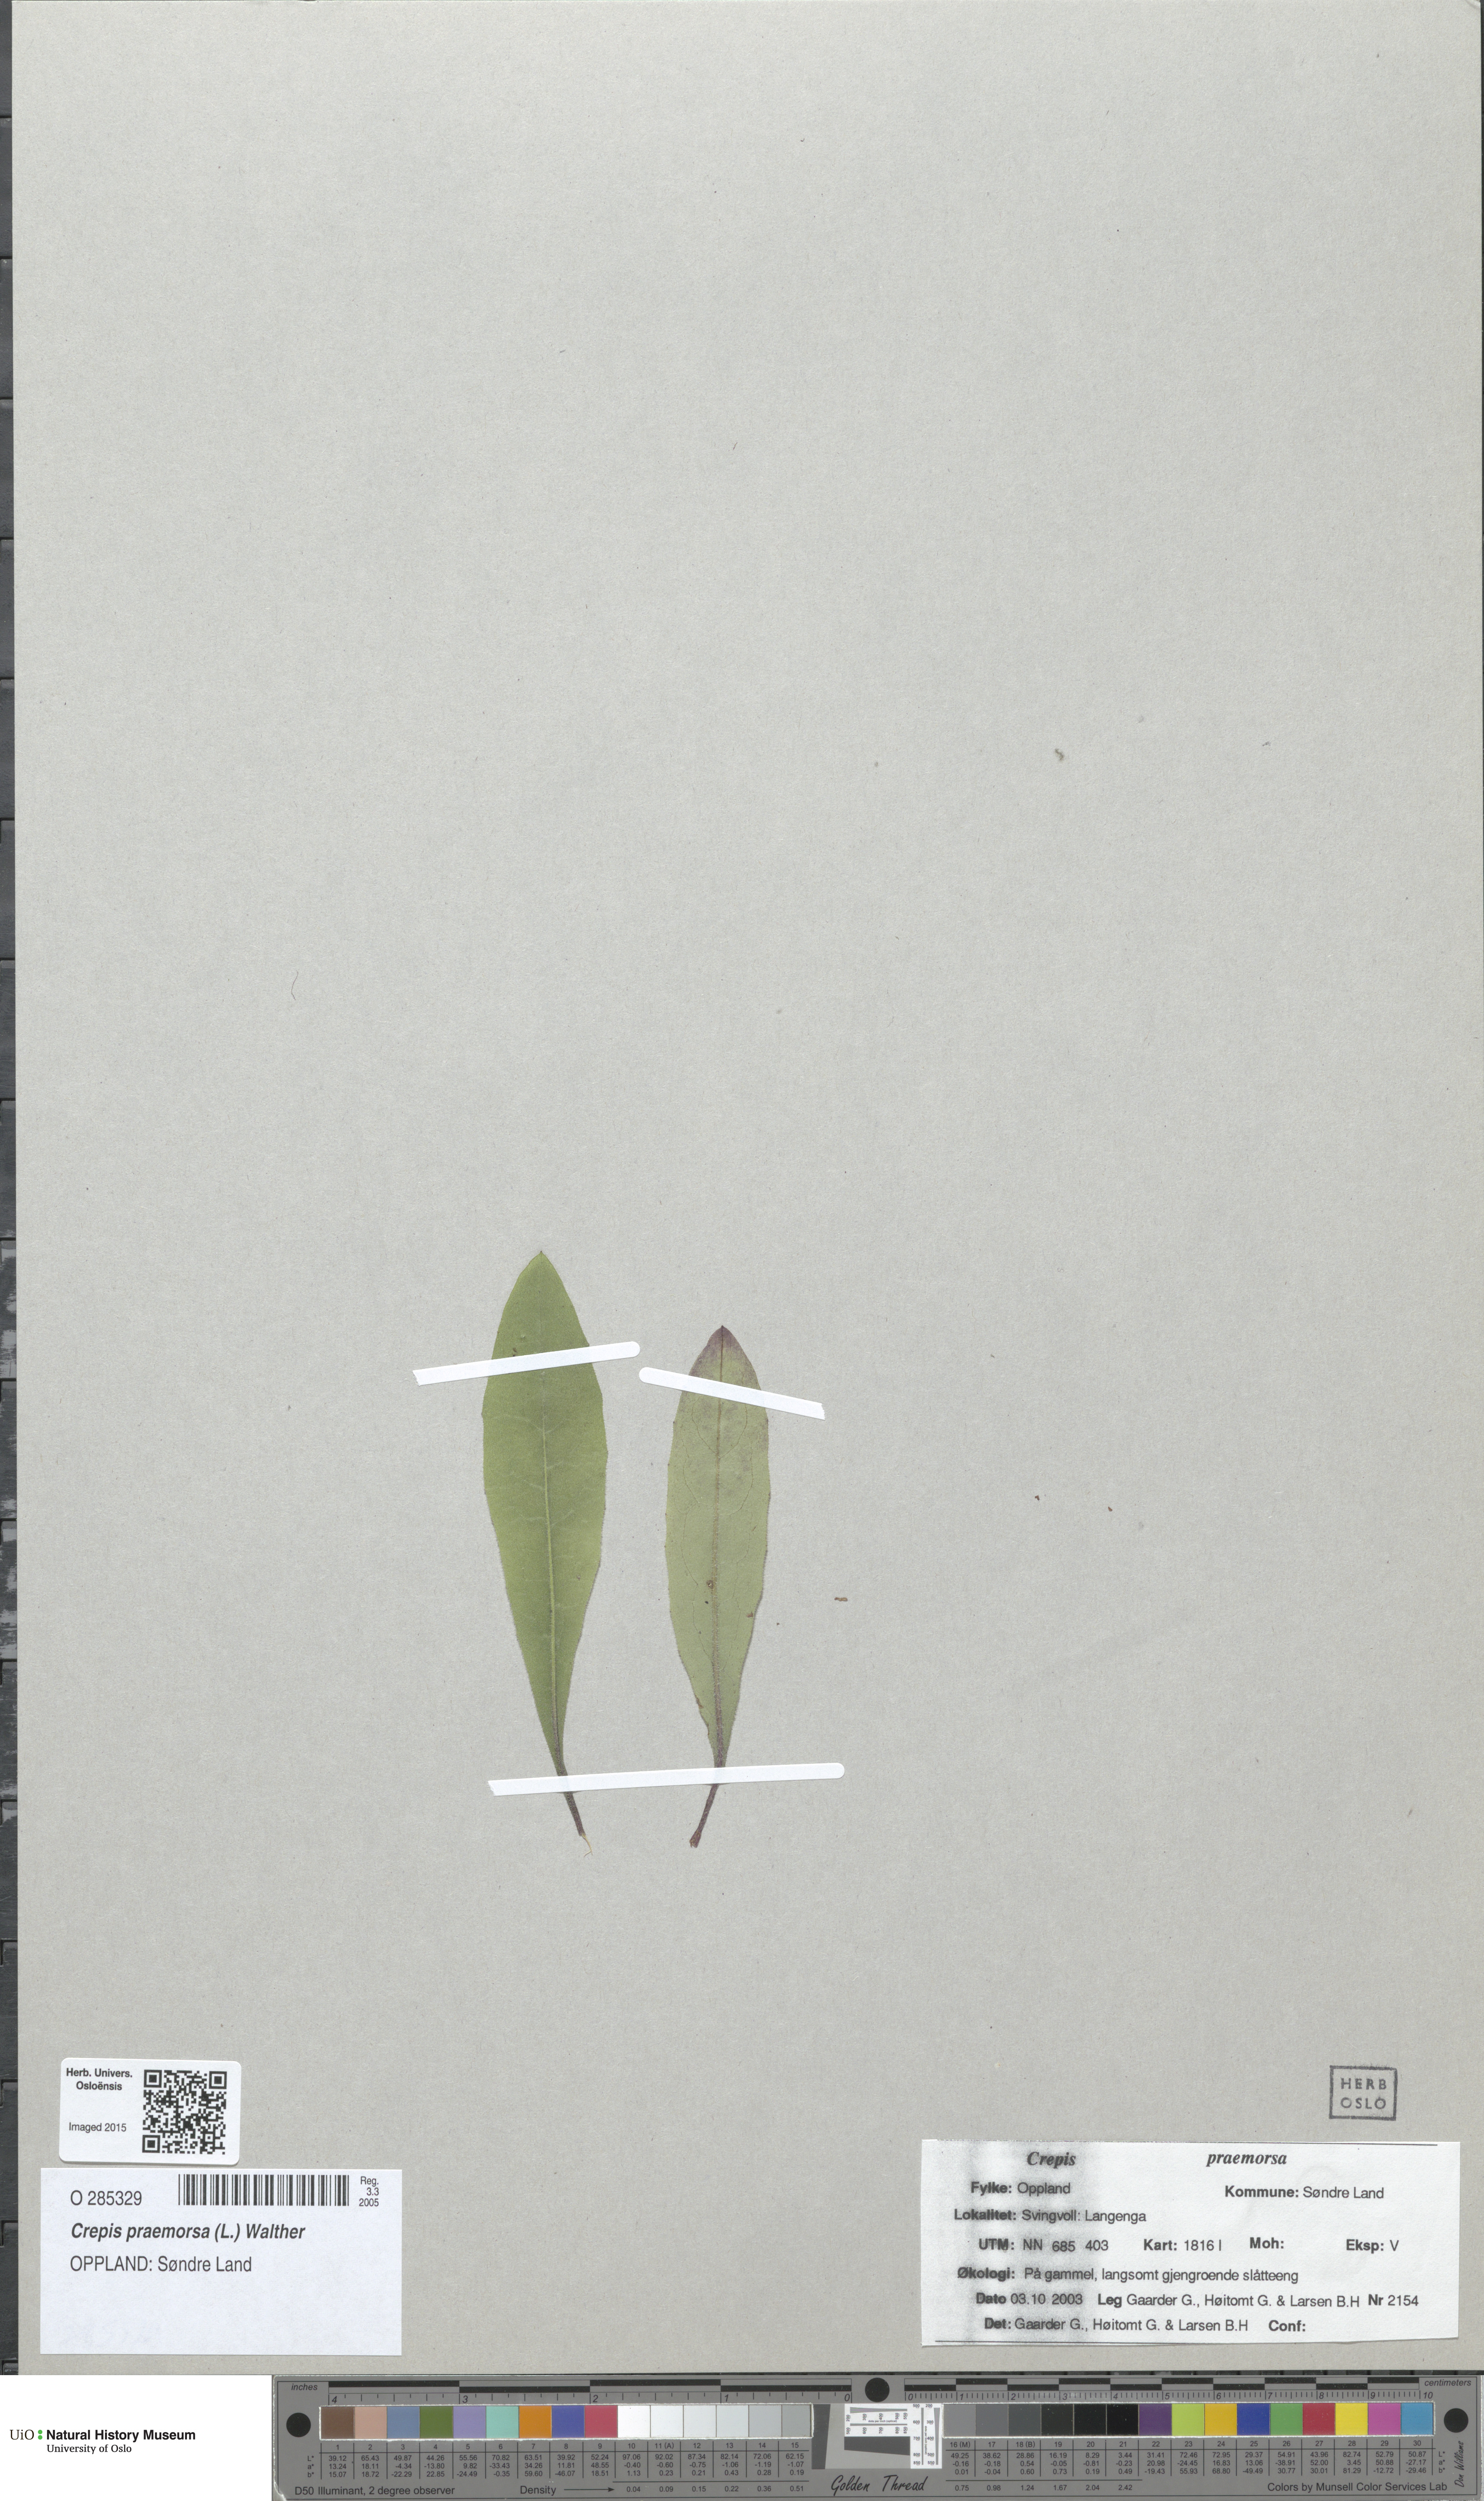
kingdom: Plantae
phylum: Tracheophyta
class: Magnoliopsida
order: Asterales
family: Asteraceae
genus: Crepis
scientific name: Crepis praemorsa
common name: Leafless hawk's-beard
